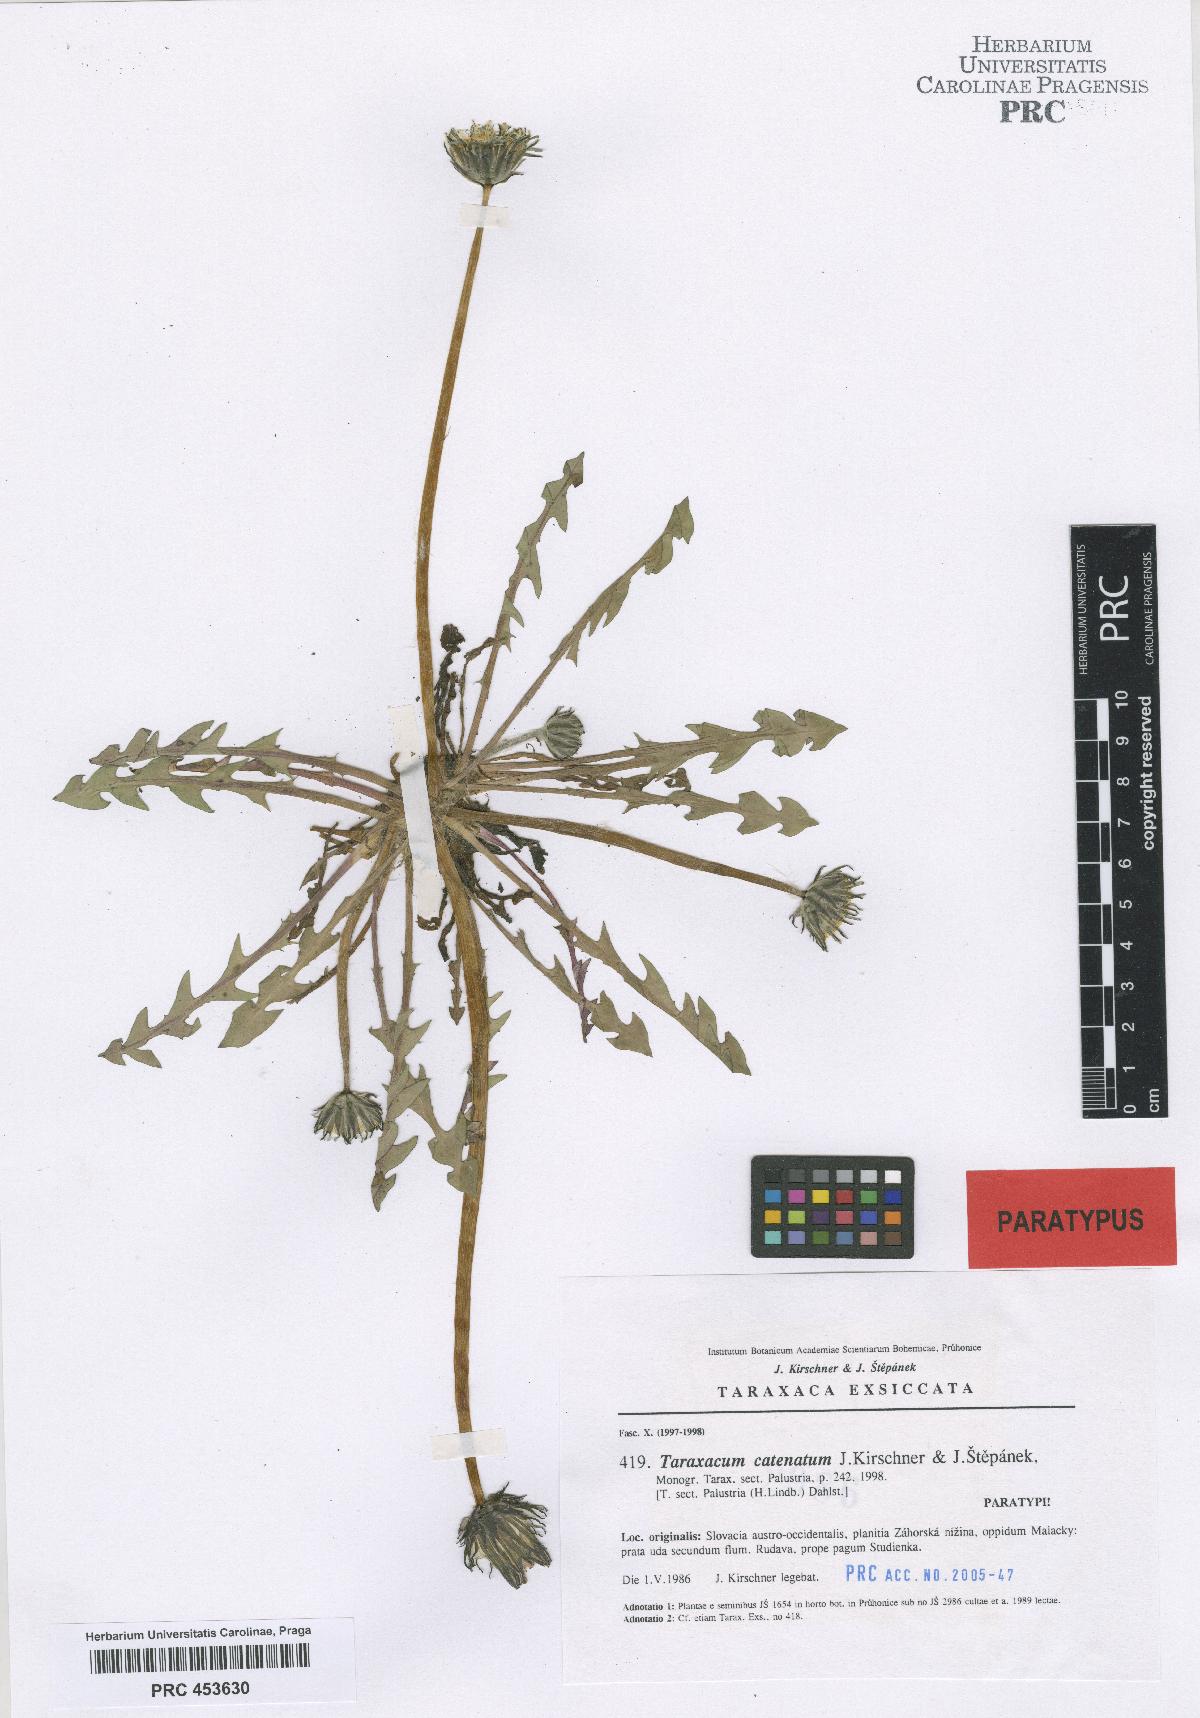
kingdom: Plantae
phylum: Tracheophyta
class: Magnoliopsida
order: Asterales
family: Asteraceae
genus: Taraxacum
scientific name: Taraxacum catenatum
